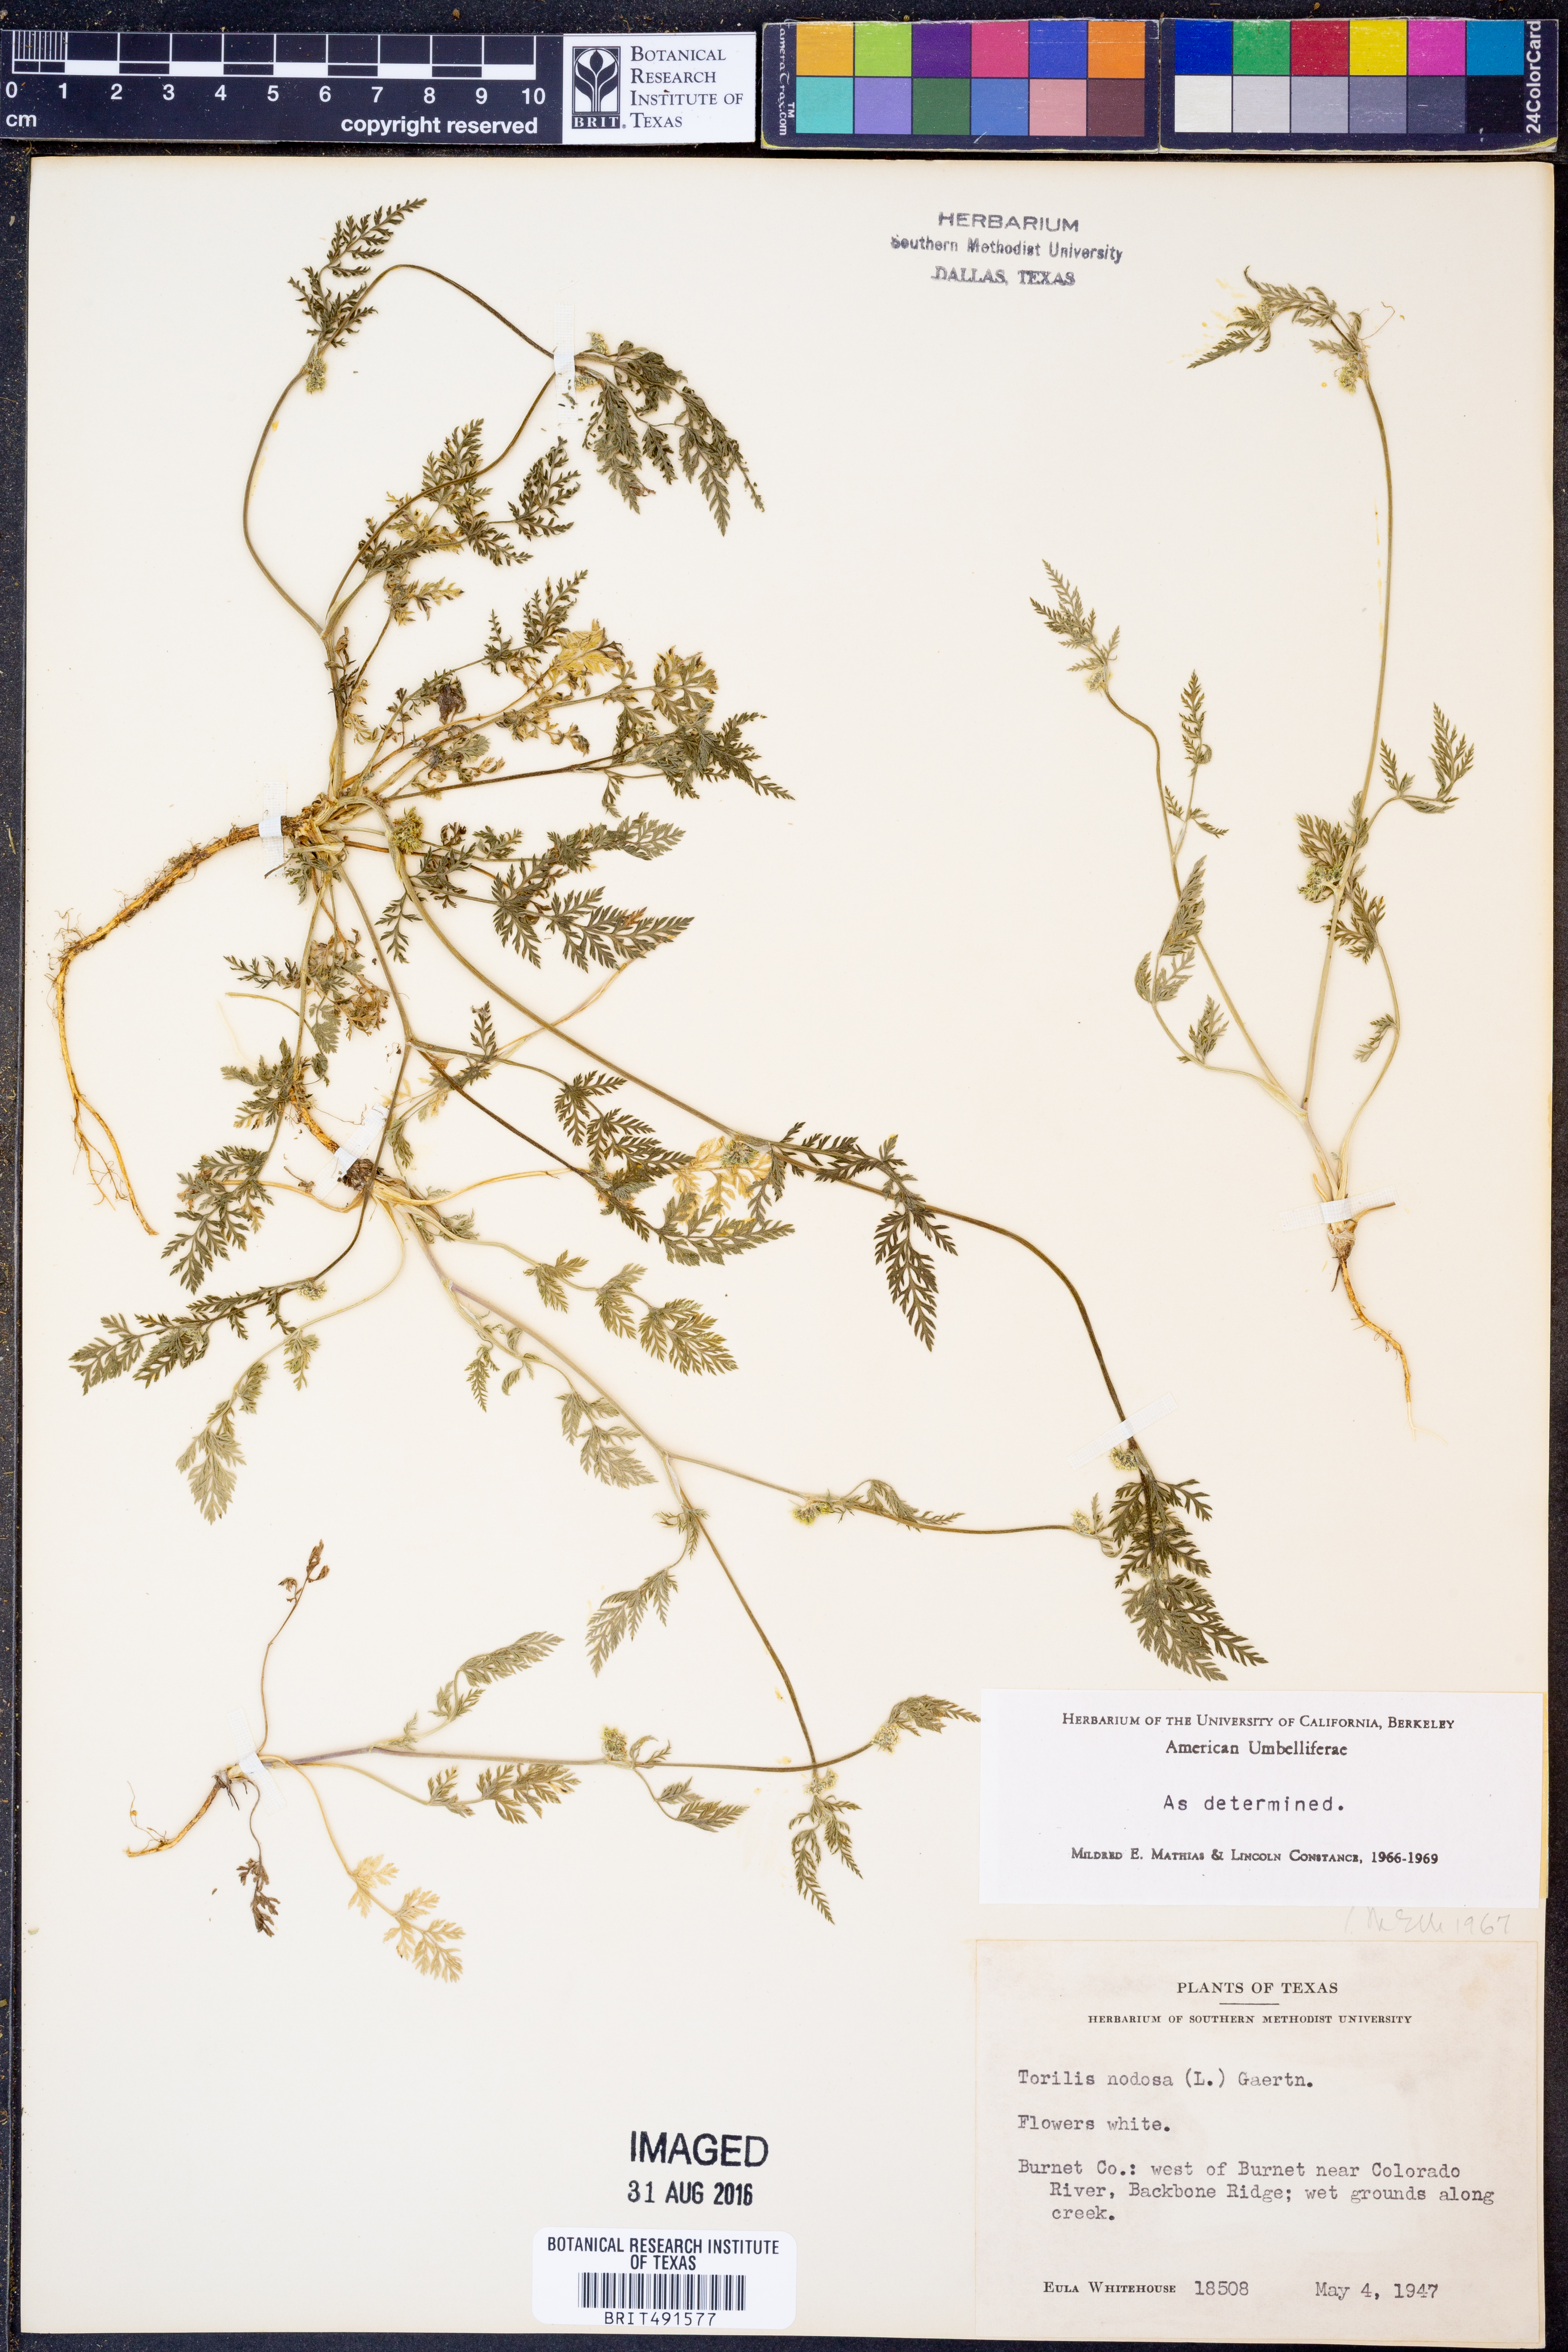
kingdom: Plantae
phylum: Tracheophyta
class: Magnoliopsida
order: Apiales
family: Apiaceae
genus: Torilis
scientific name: Torilis nodosa
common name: Knotted hedge-parsley
